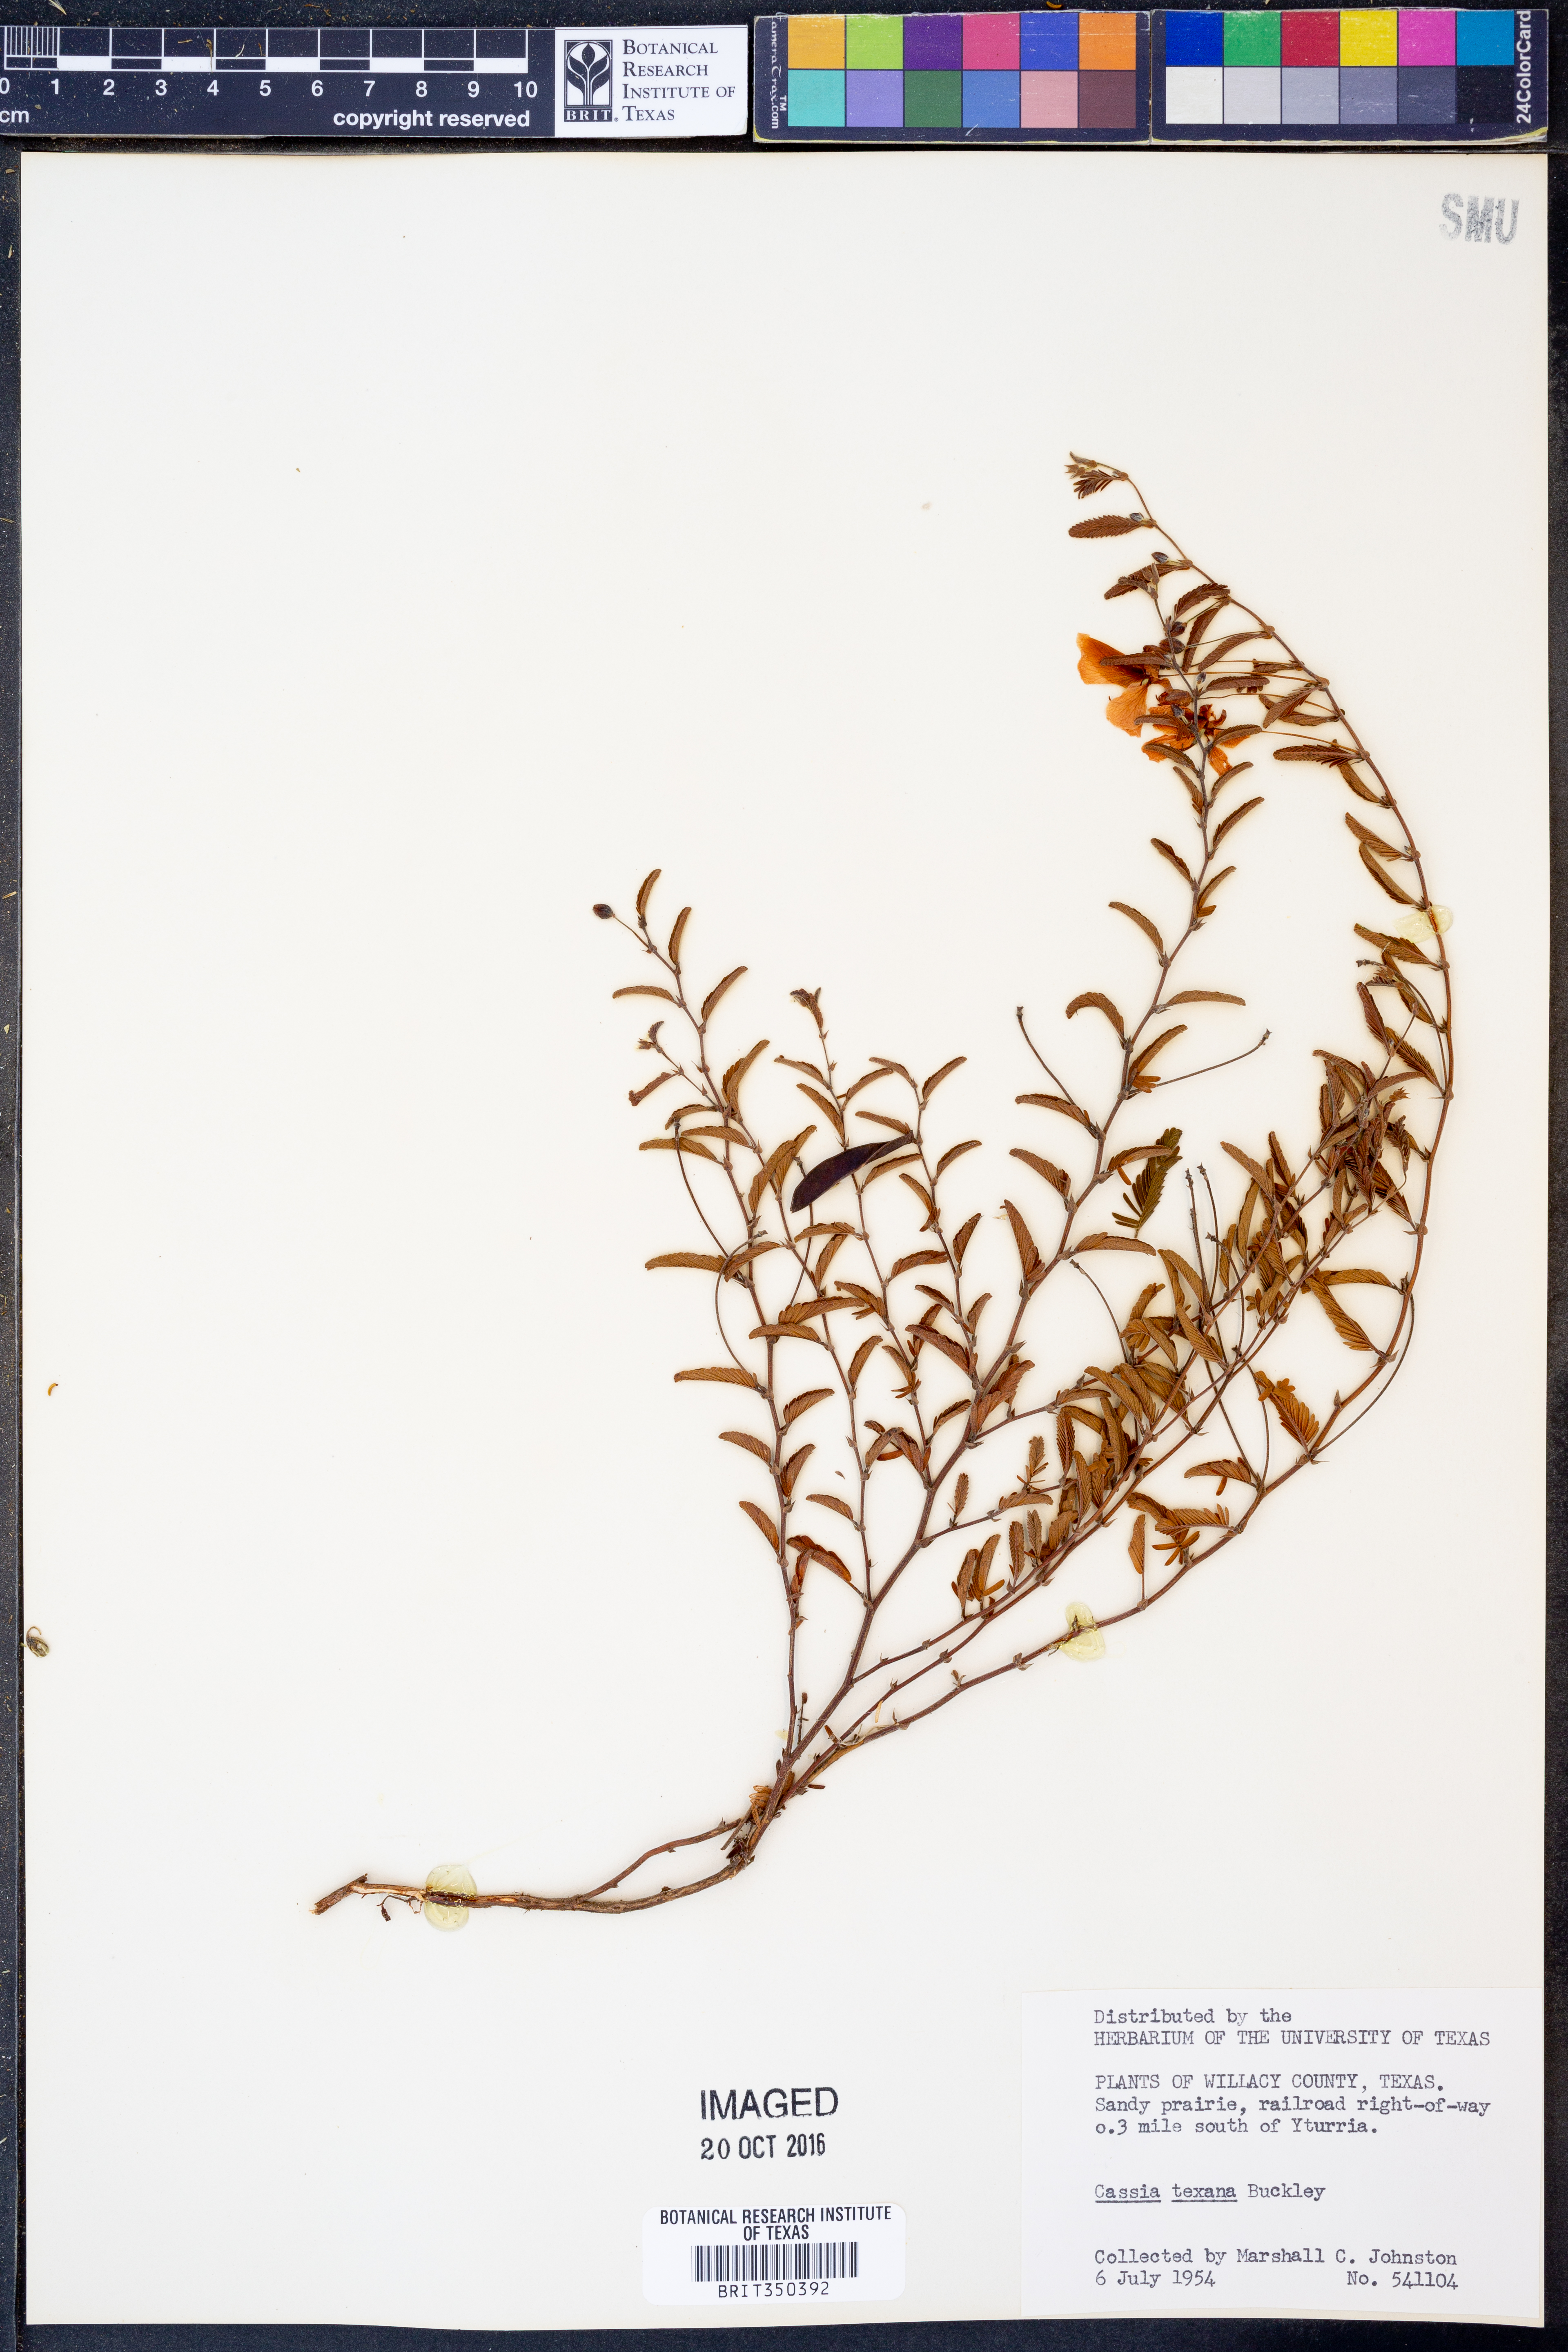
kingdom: Plantae
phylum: Tracheophyta
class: Magnoliopsida
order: Fabales
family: Fabaceae
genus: Chamaecrista
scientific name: Chamaecrista flexuosa
